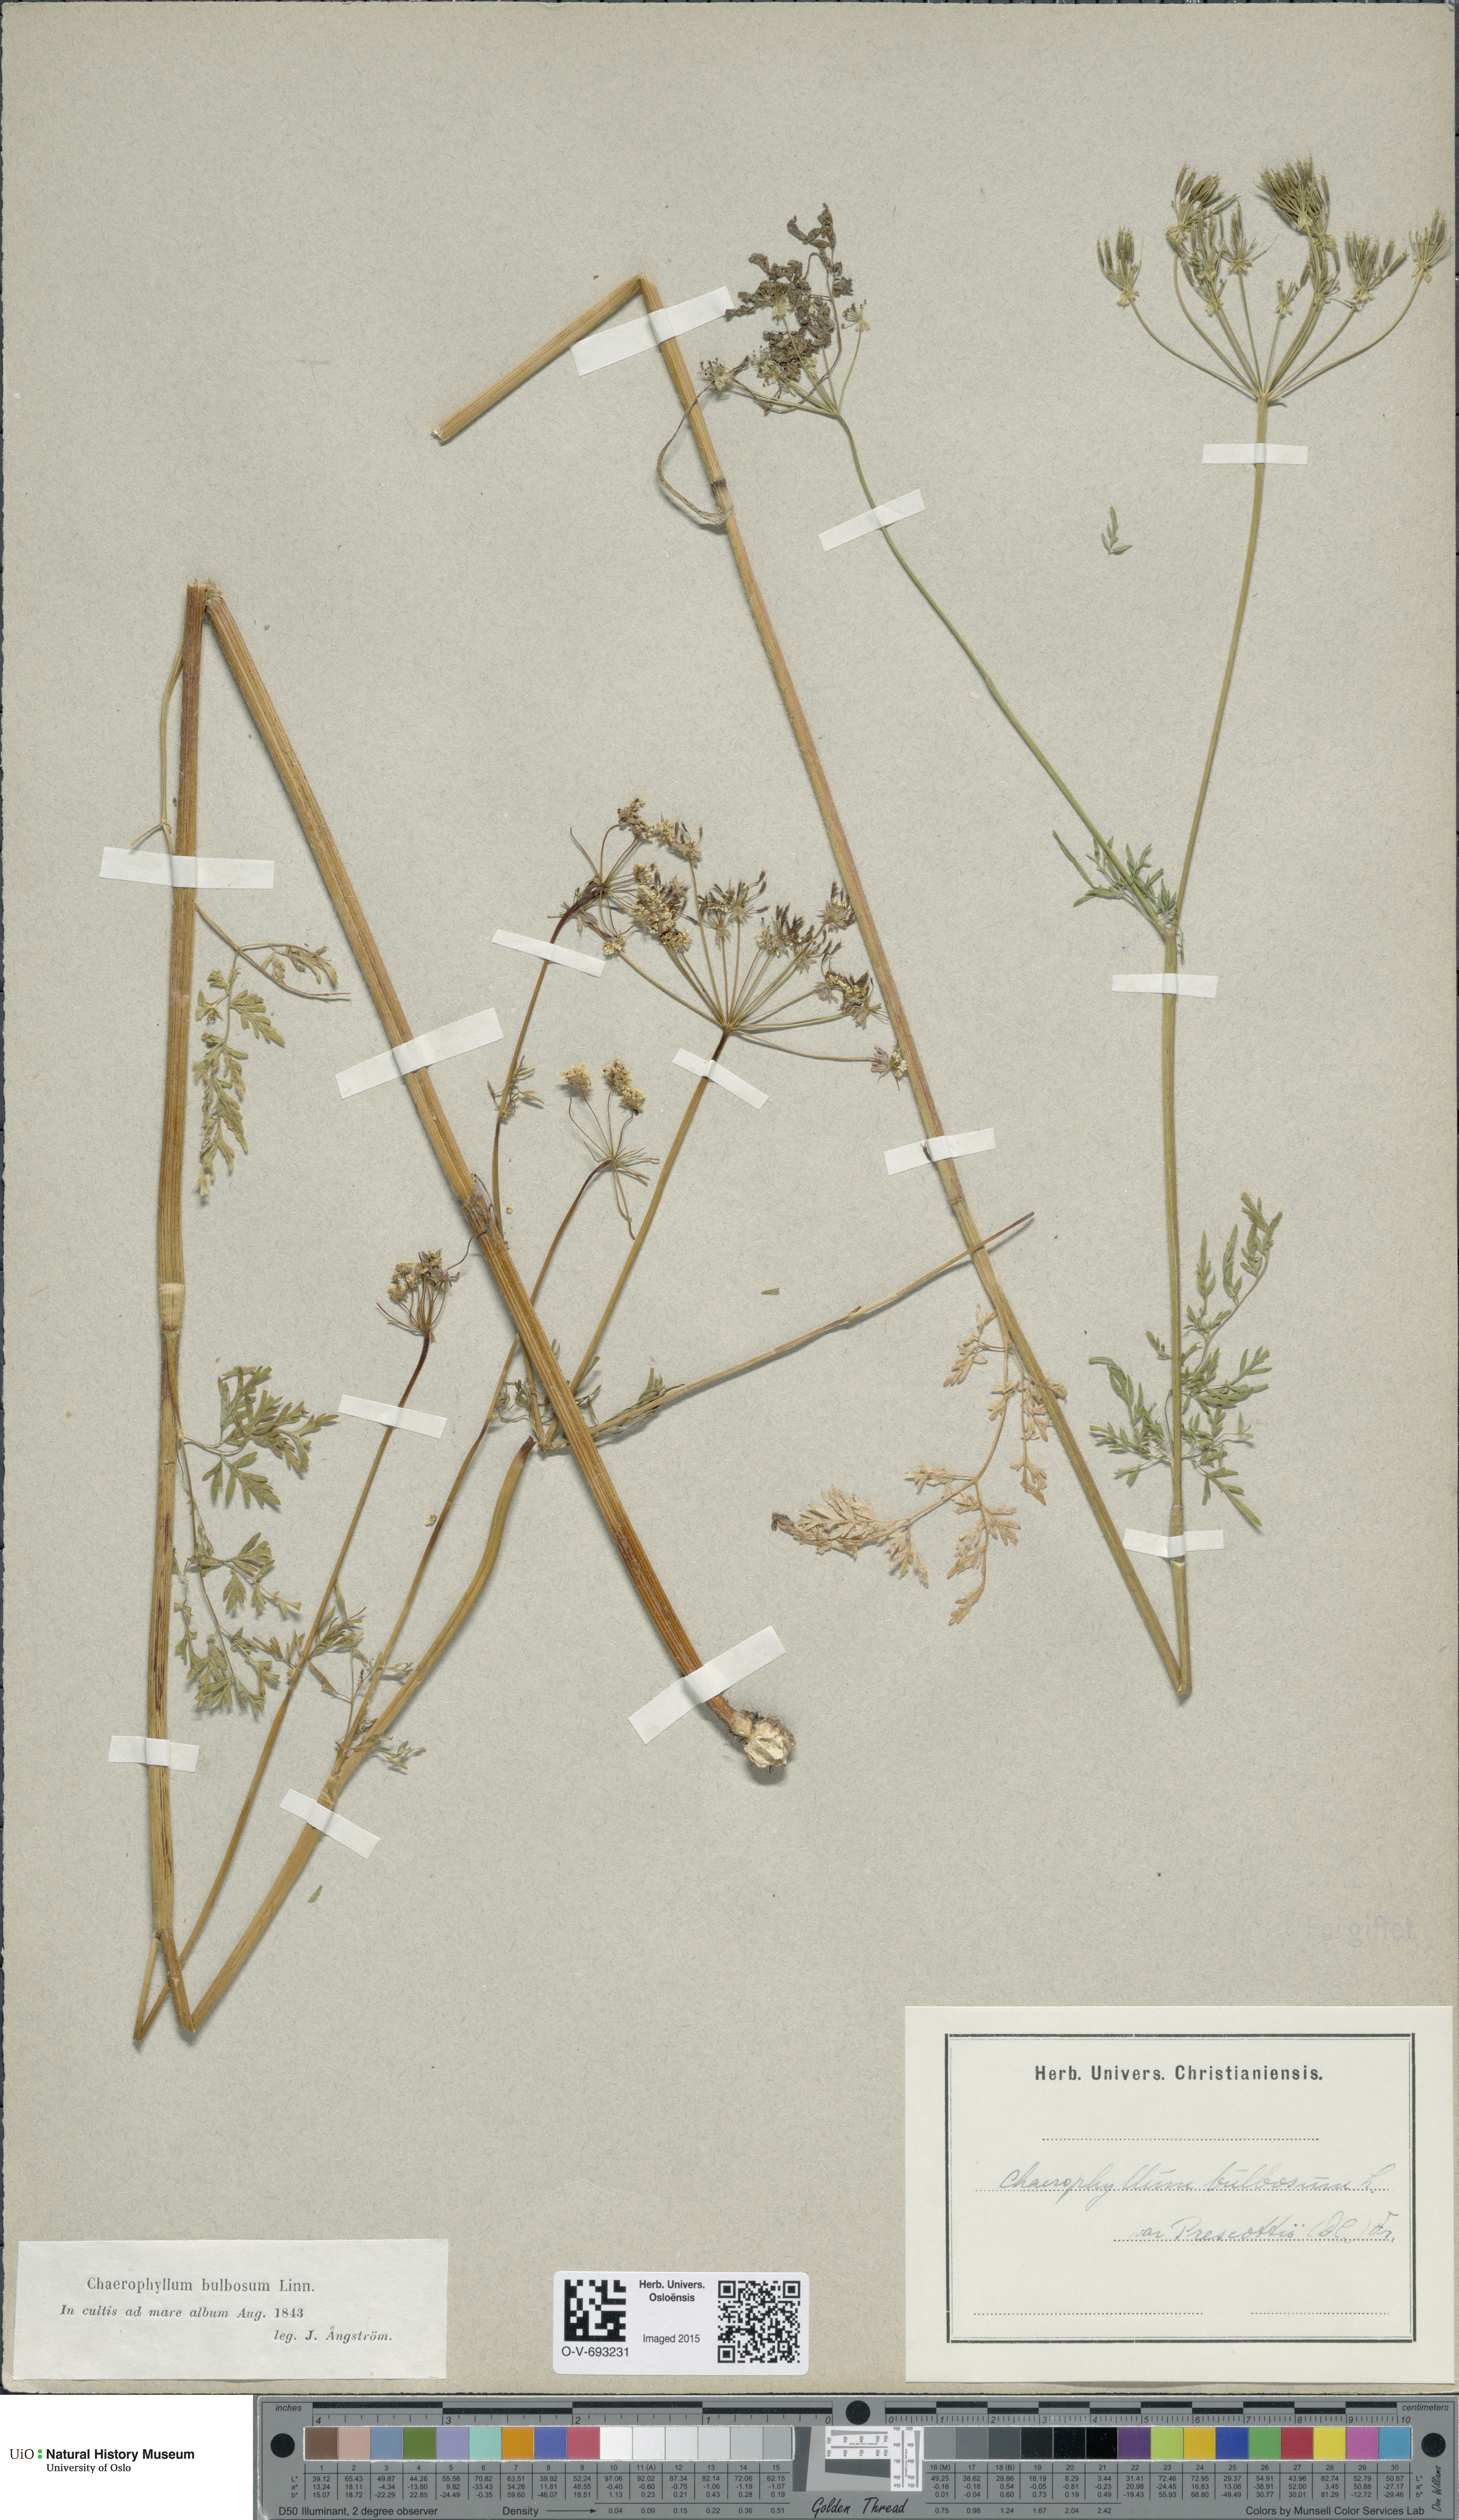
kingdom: Plantae
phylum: Tracheophyta
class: Magnoliopsida
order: Apiales
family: Apiaceae
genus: Chaerophyllum
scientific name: Chaerophyllum prescottii
